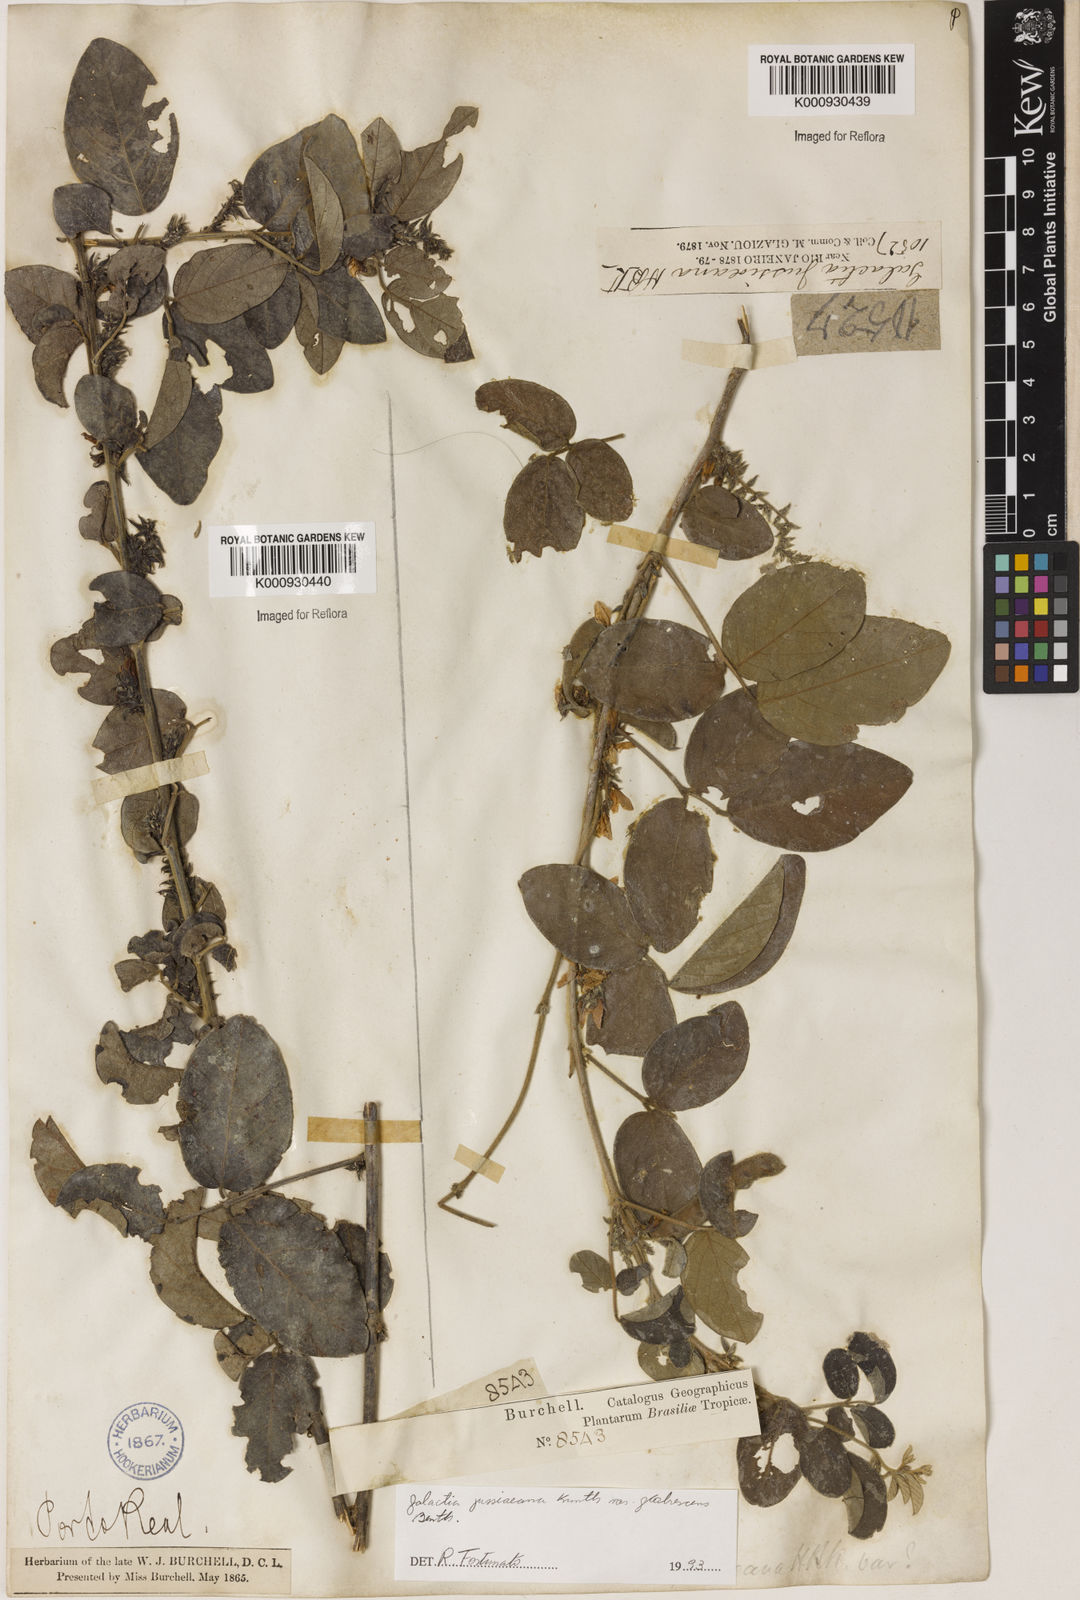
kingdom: Plantae
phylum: Tracheophyta
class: Magnoliopsida
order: Fabales
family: Fabaceae
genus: Galactia
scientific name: Galactia jussiaeana
